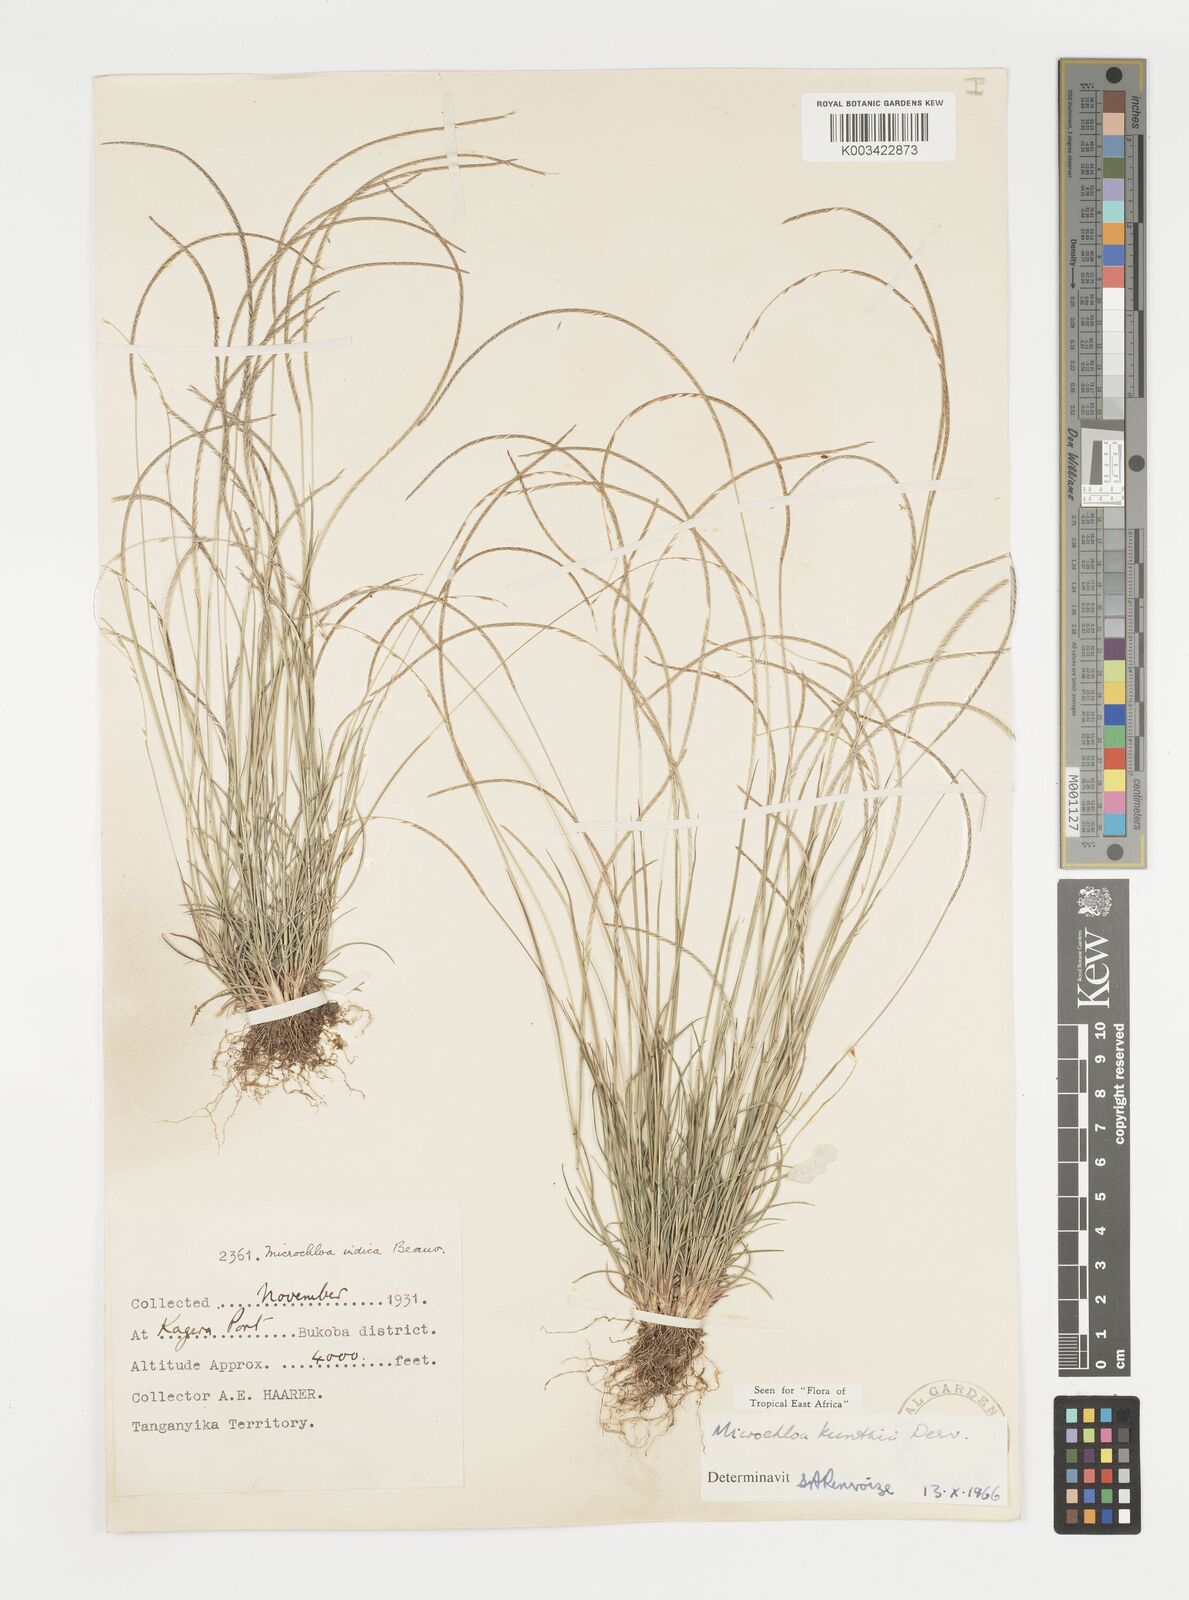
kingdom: Plantae
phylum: Tracheophyta
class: Liliopsida
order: Poales
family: Poaceae
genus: Microchloa
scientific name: Microchloa kunthii
